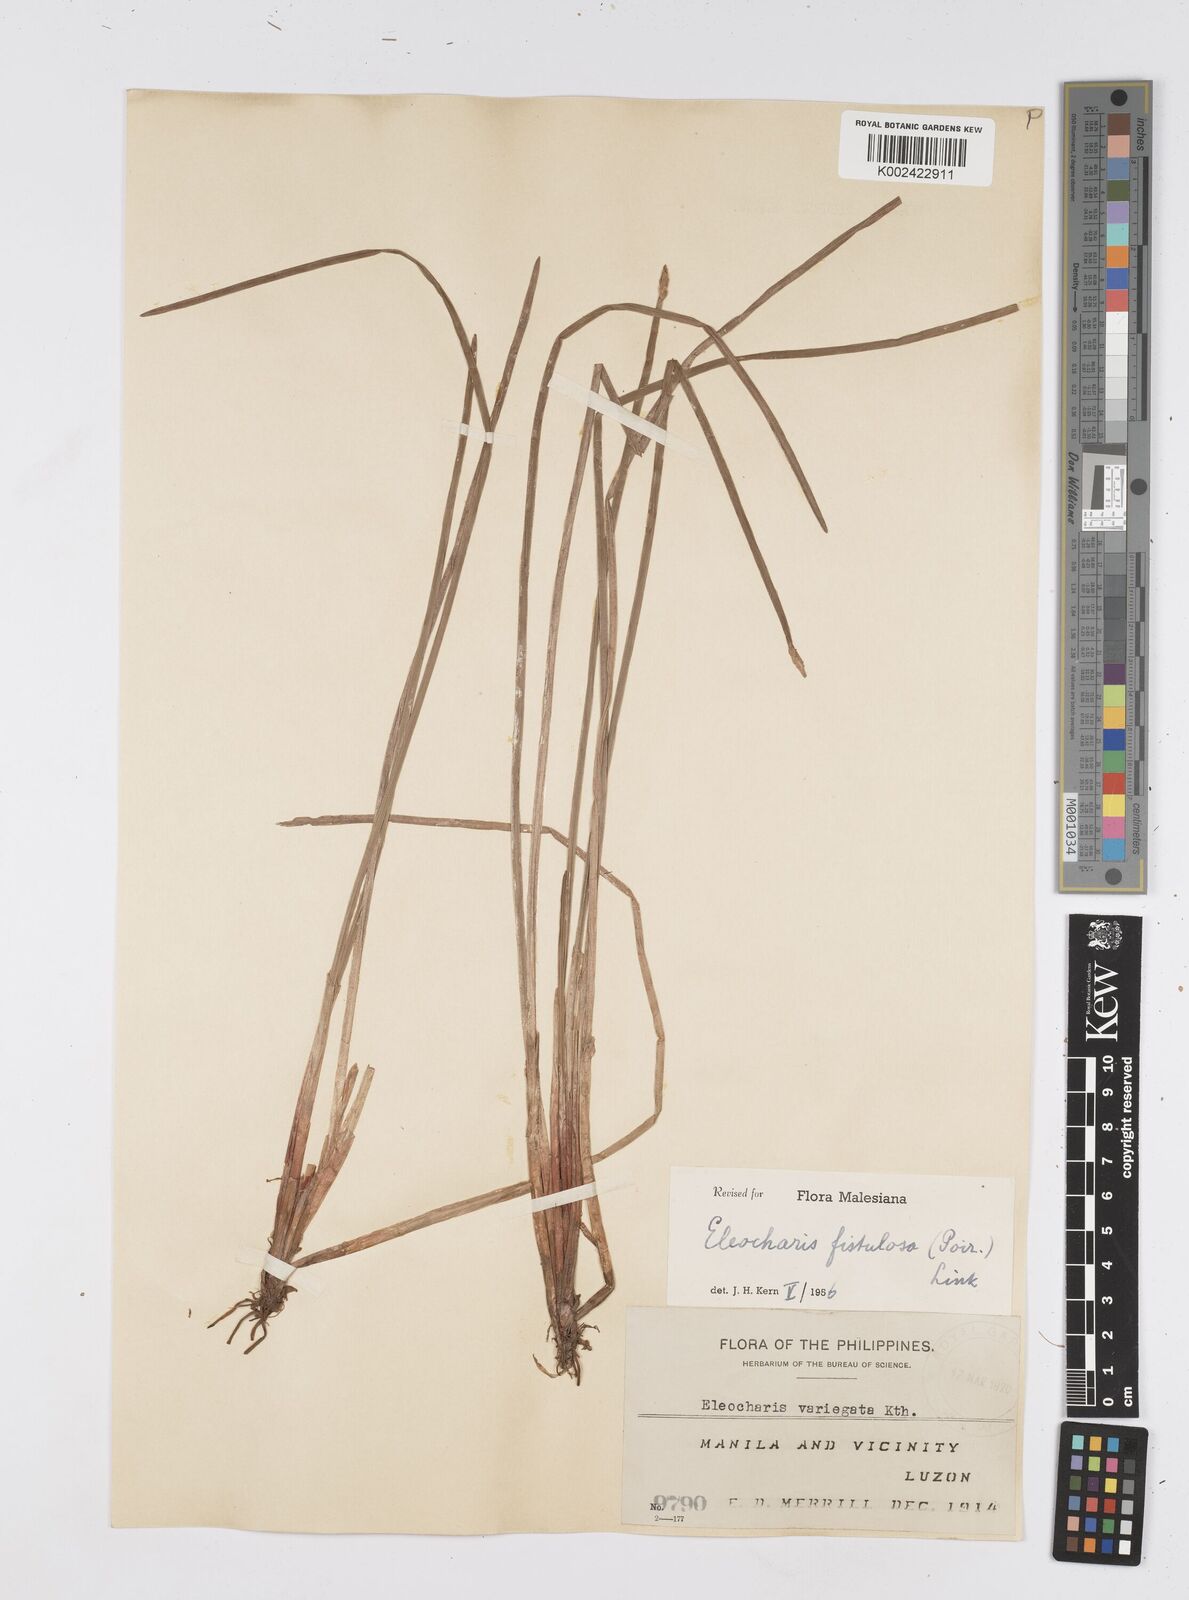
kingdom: Plantae
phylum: Tracheophyta
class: Liliopsida
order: Poales
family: Cyperaceae
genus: Eleocharis
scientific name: Eleocharis acutangula
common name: Acute spikerush
